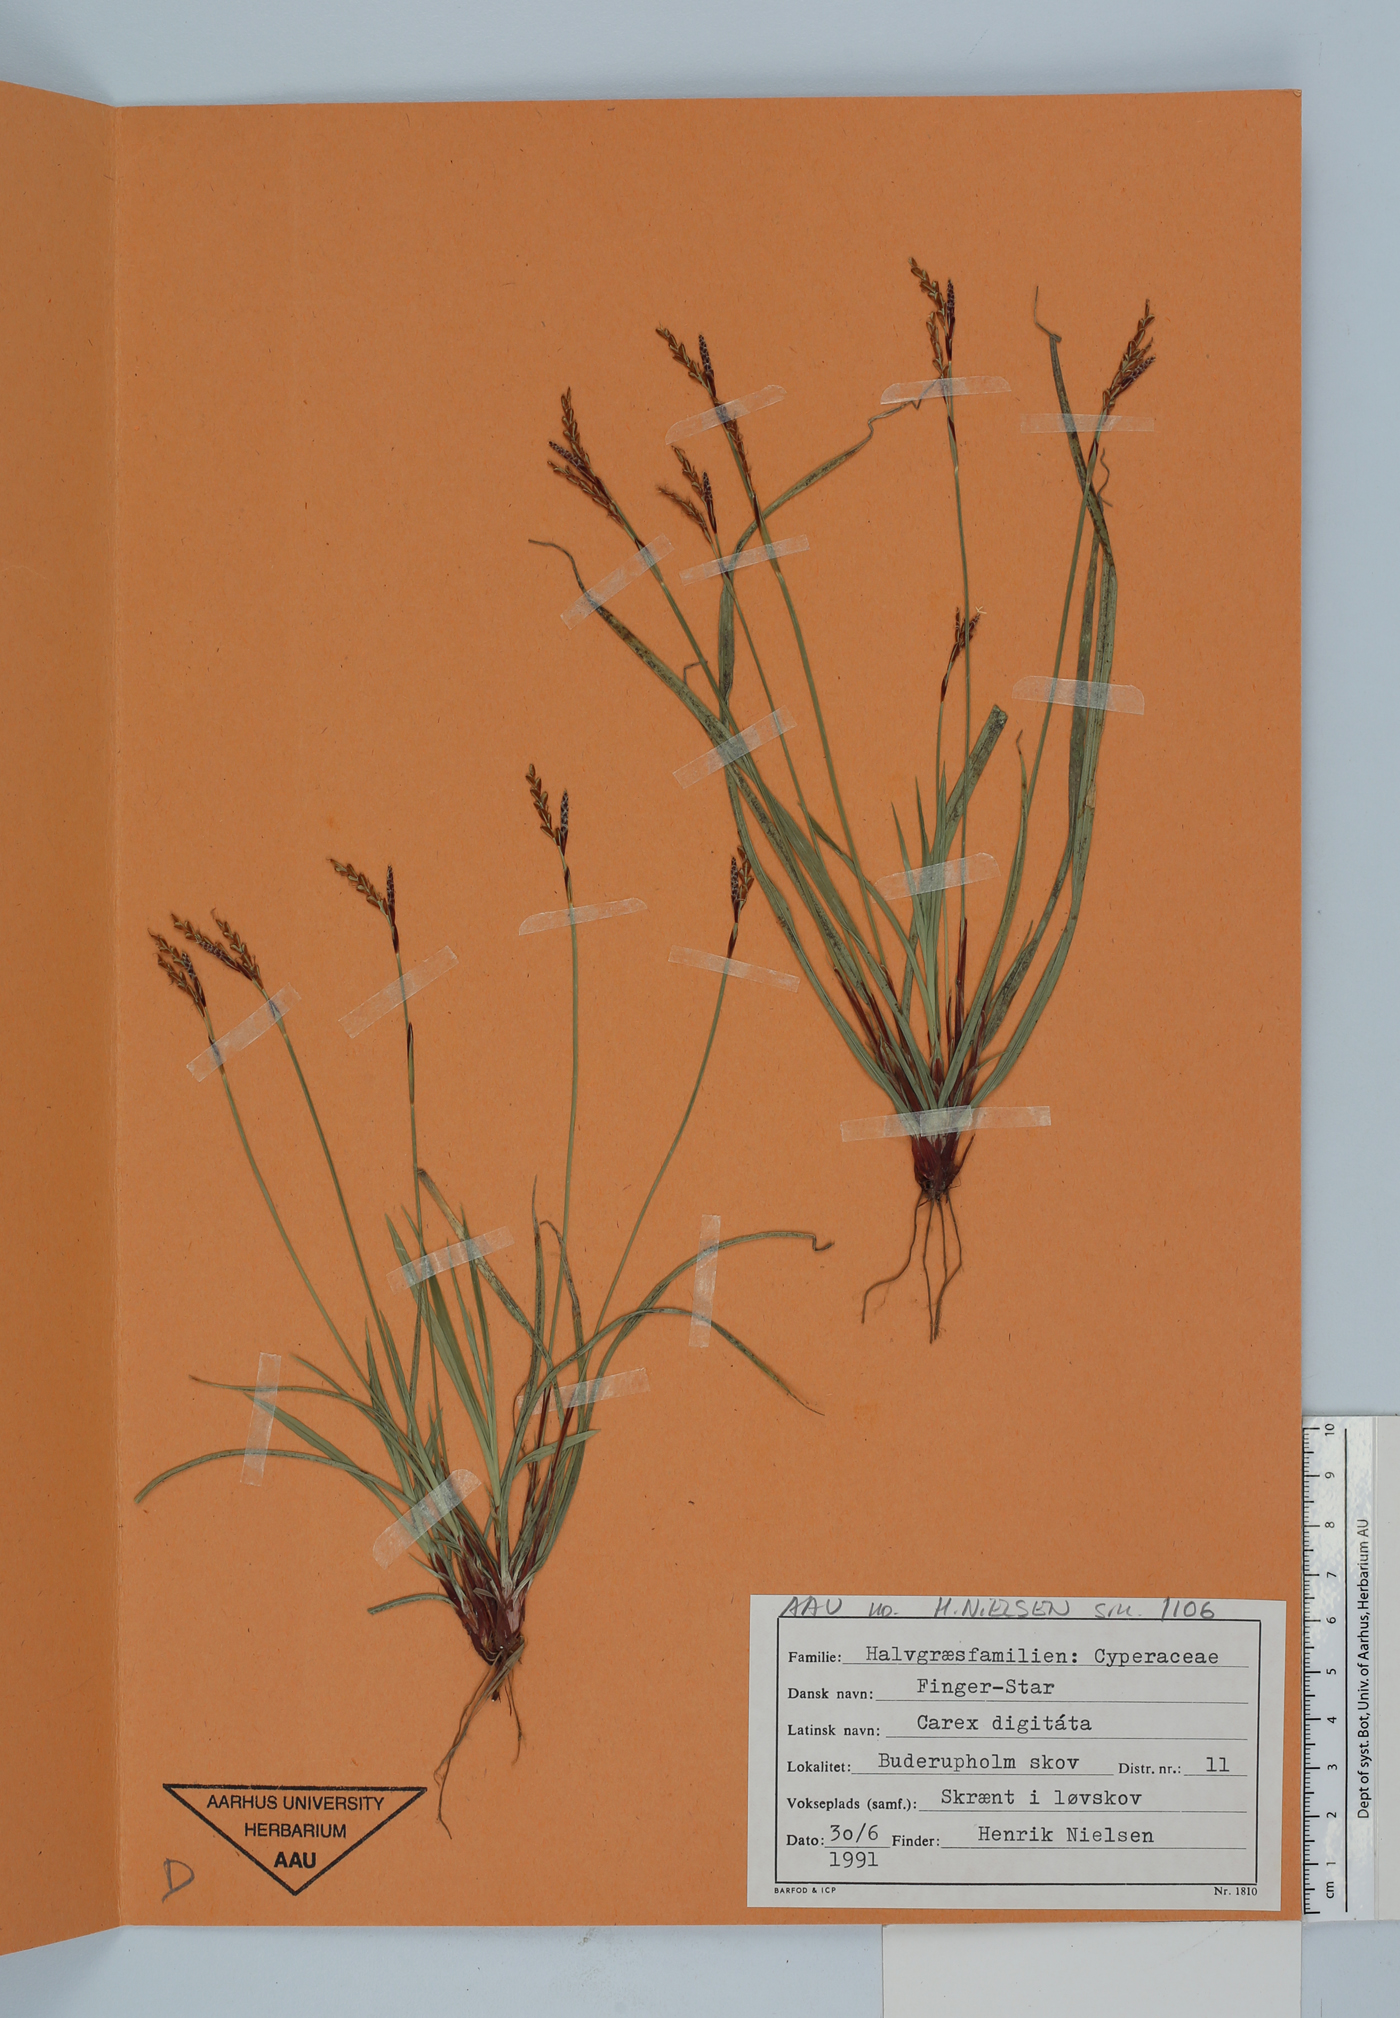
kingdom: Plantae
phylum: Tracheophyta
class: Liliopsida
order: Poales
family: Cyperaceae
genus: Carex
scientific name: Carex digitata
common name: Fingered sedge
